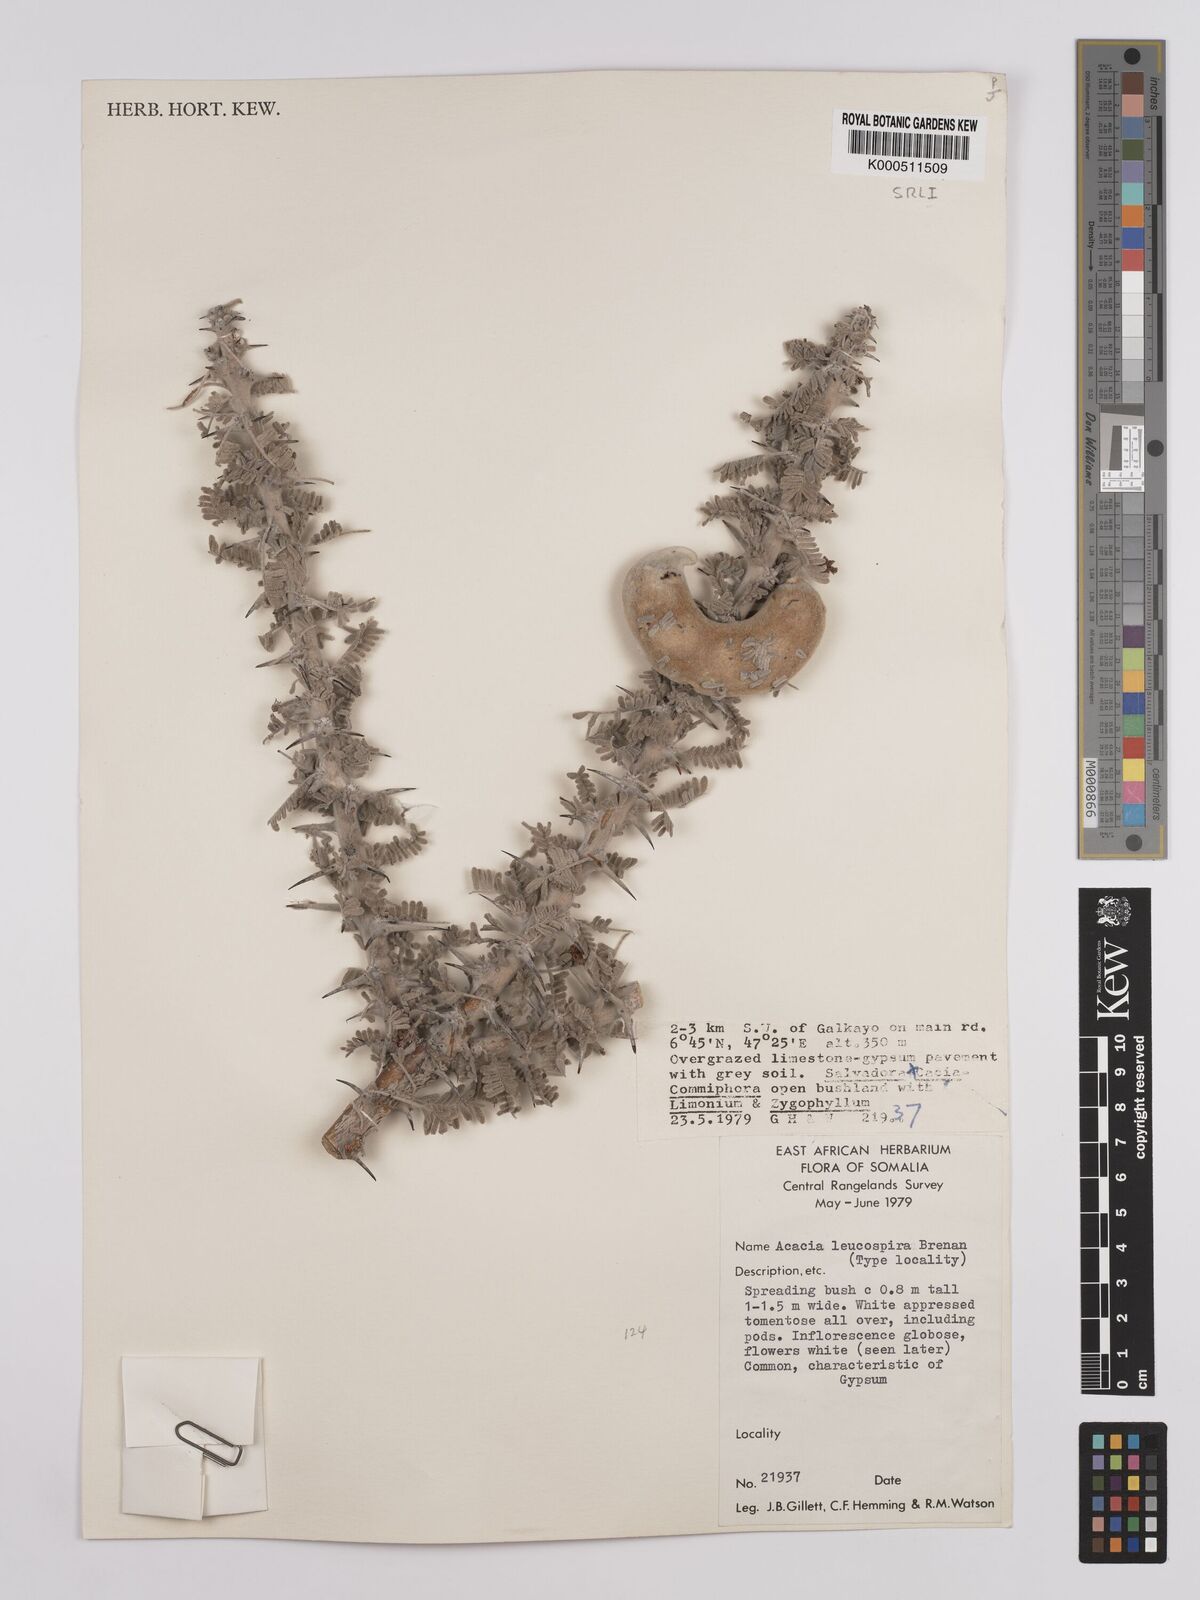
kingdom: Plantae
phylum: Tracheophyta
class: Magnoliopsida
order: Fabales
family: Fabaceae
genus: Vachellia
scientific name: Vachellia leucospira
